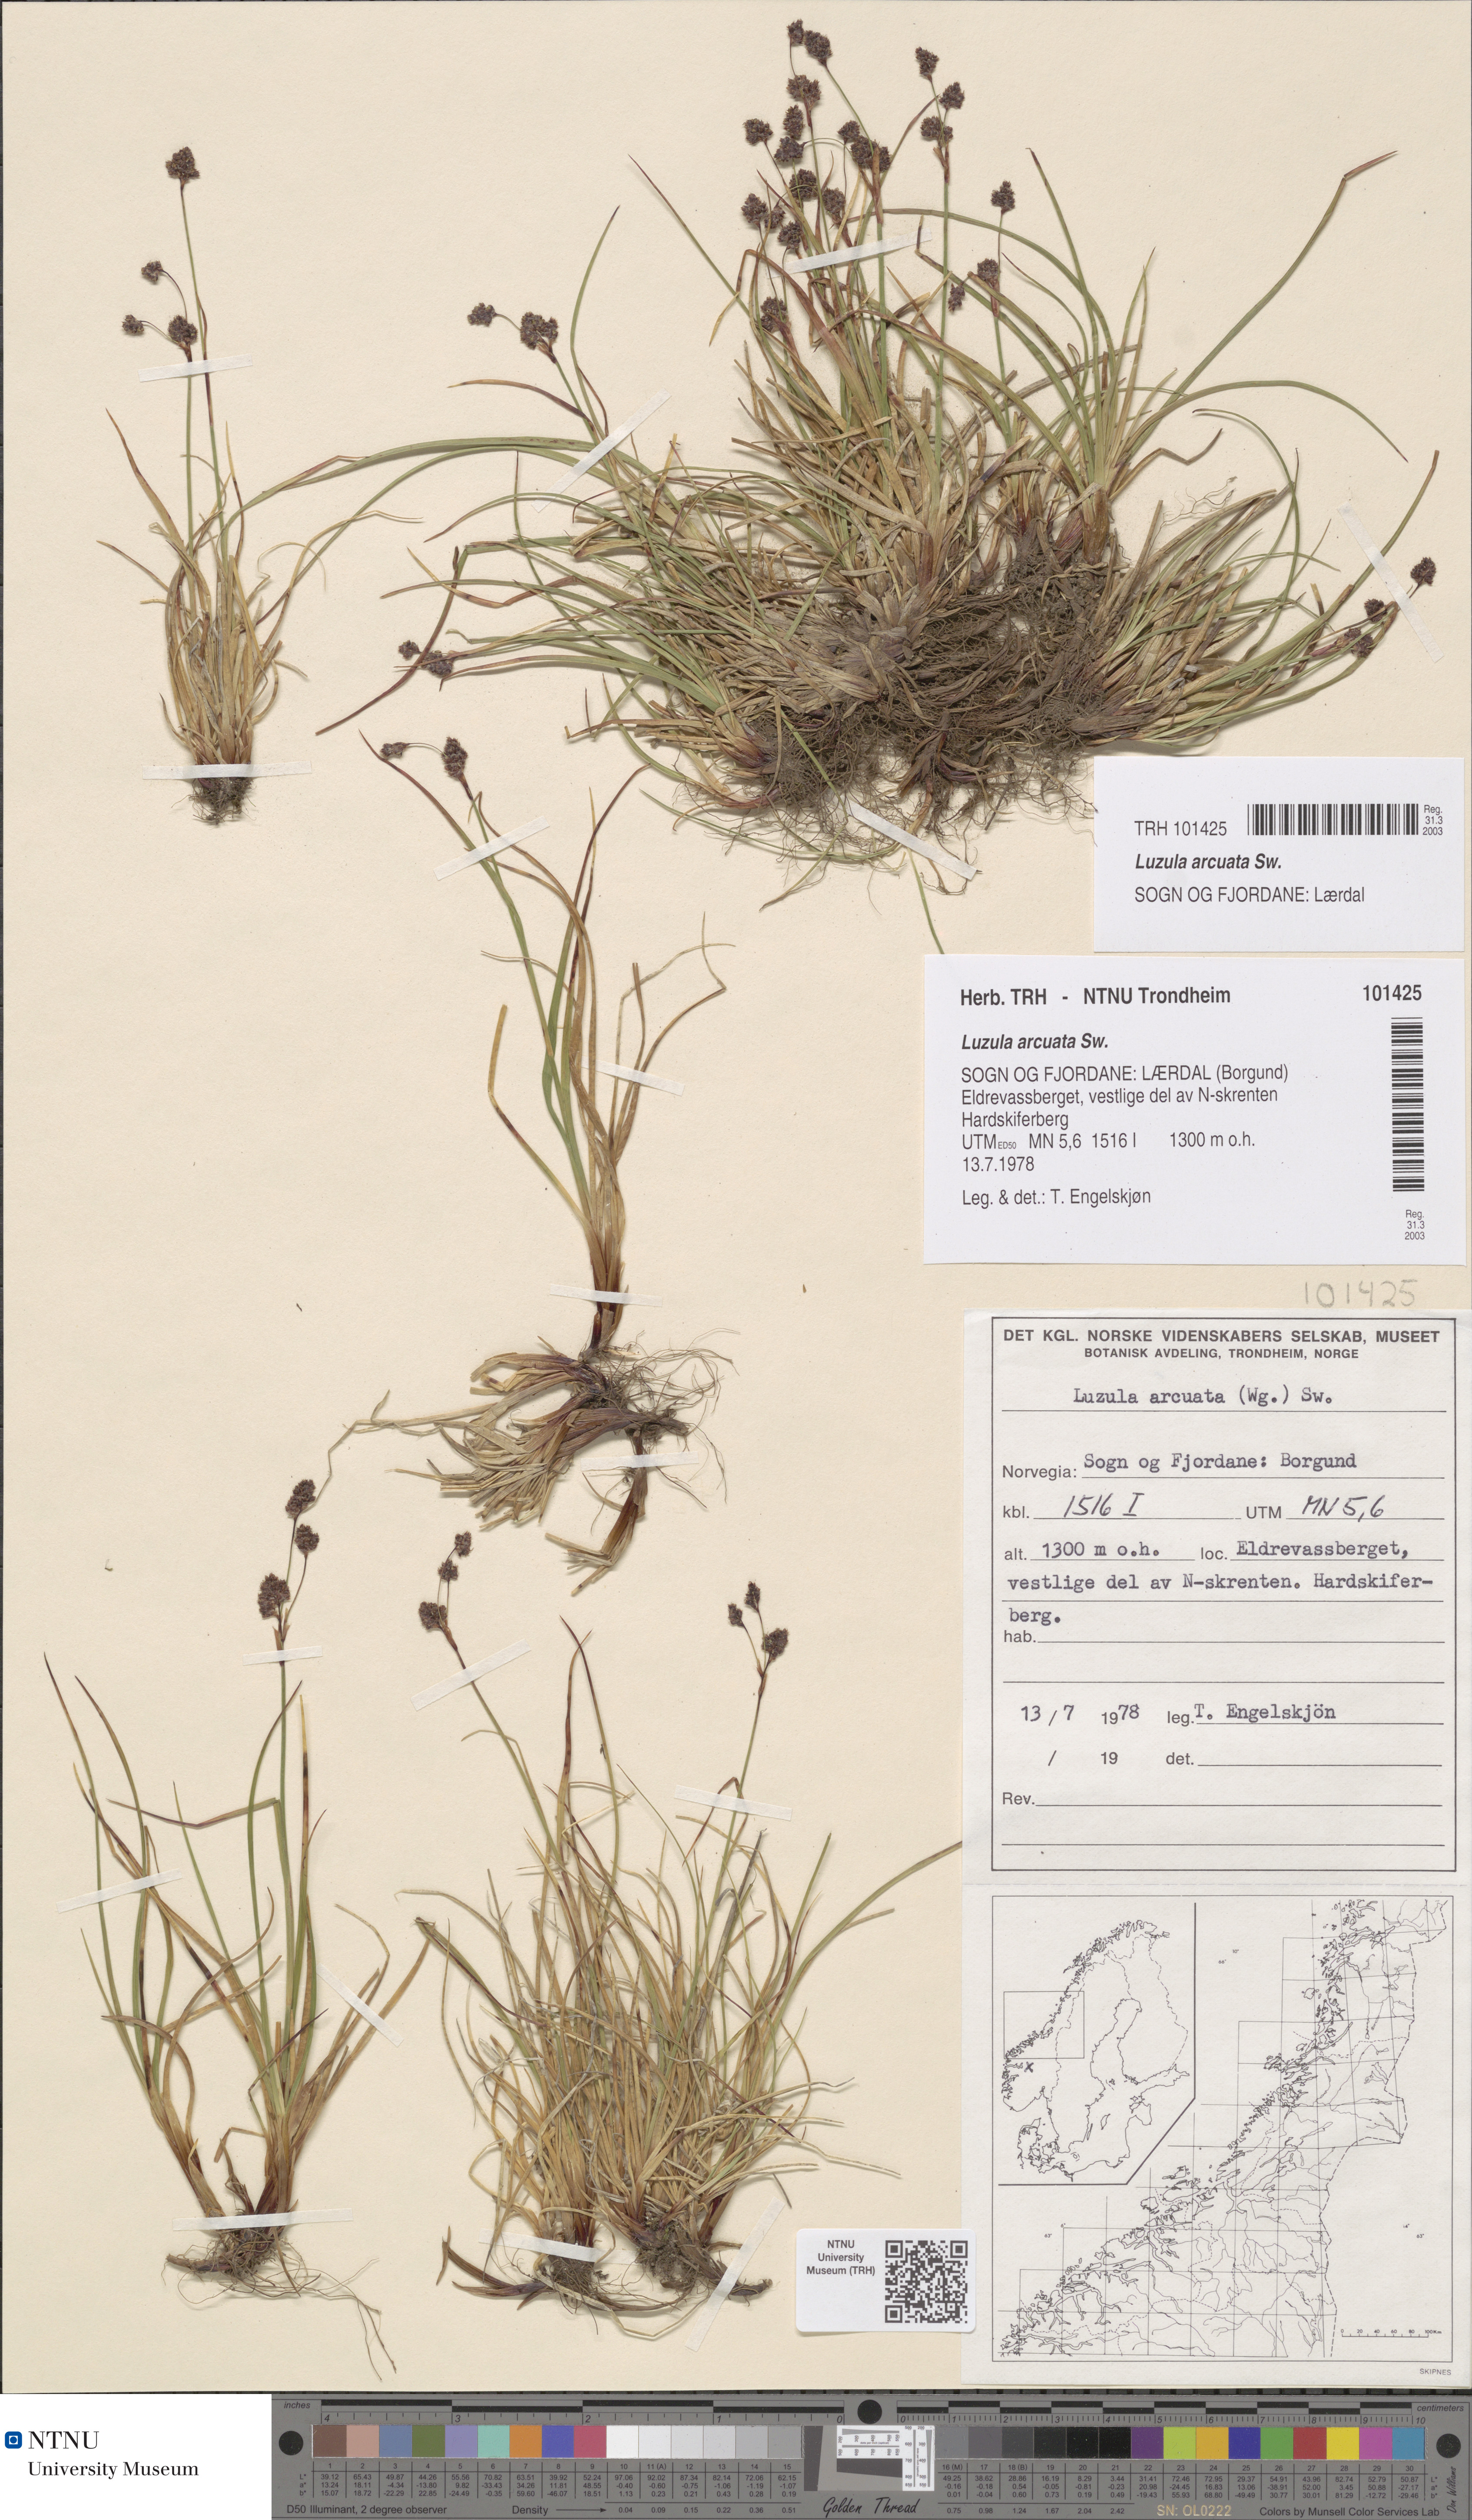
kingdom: Plantae
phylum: Tracheophyta
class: Liliopsida
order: Poales
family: Juncaceae
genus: Luzula
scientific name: Luzula arcuata
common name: Curved wood-rush
